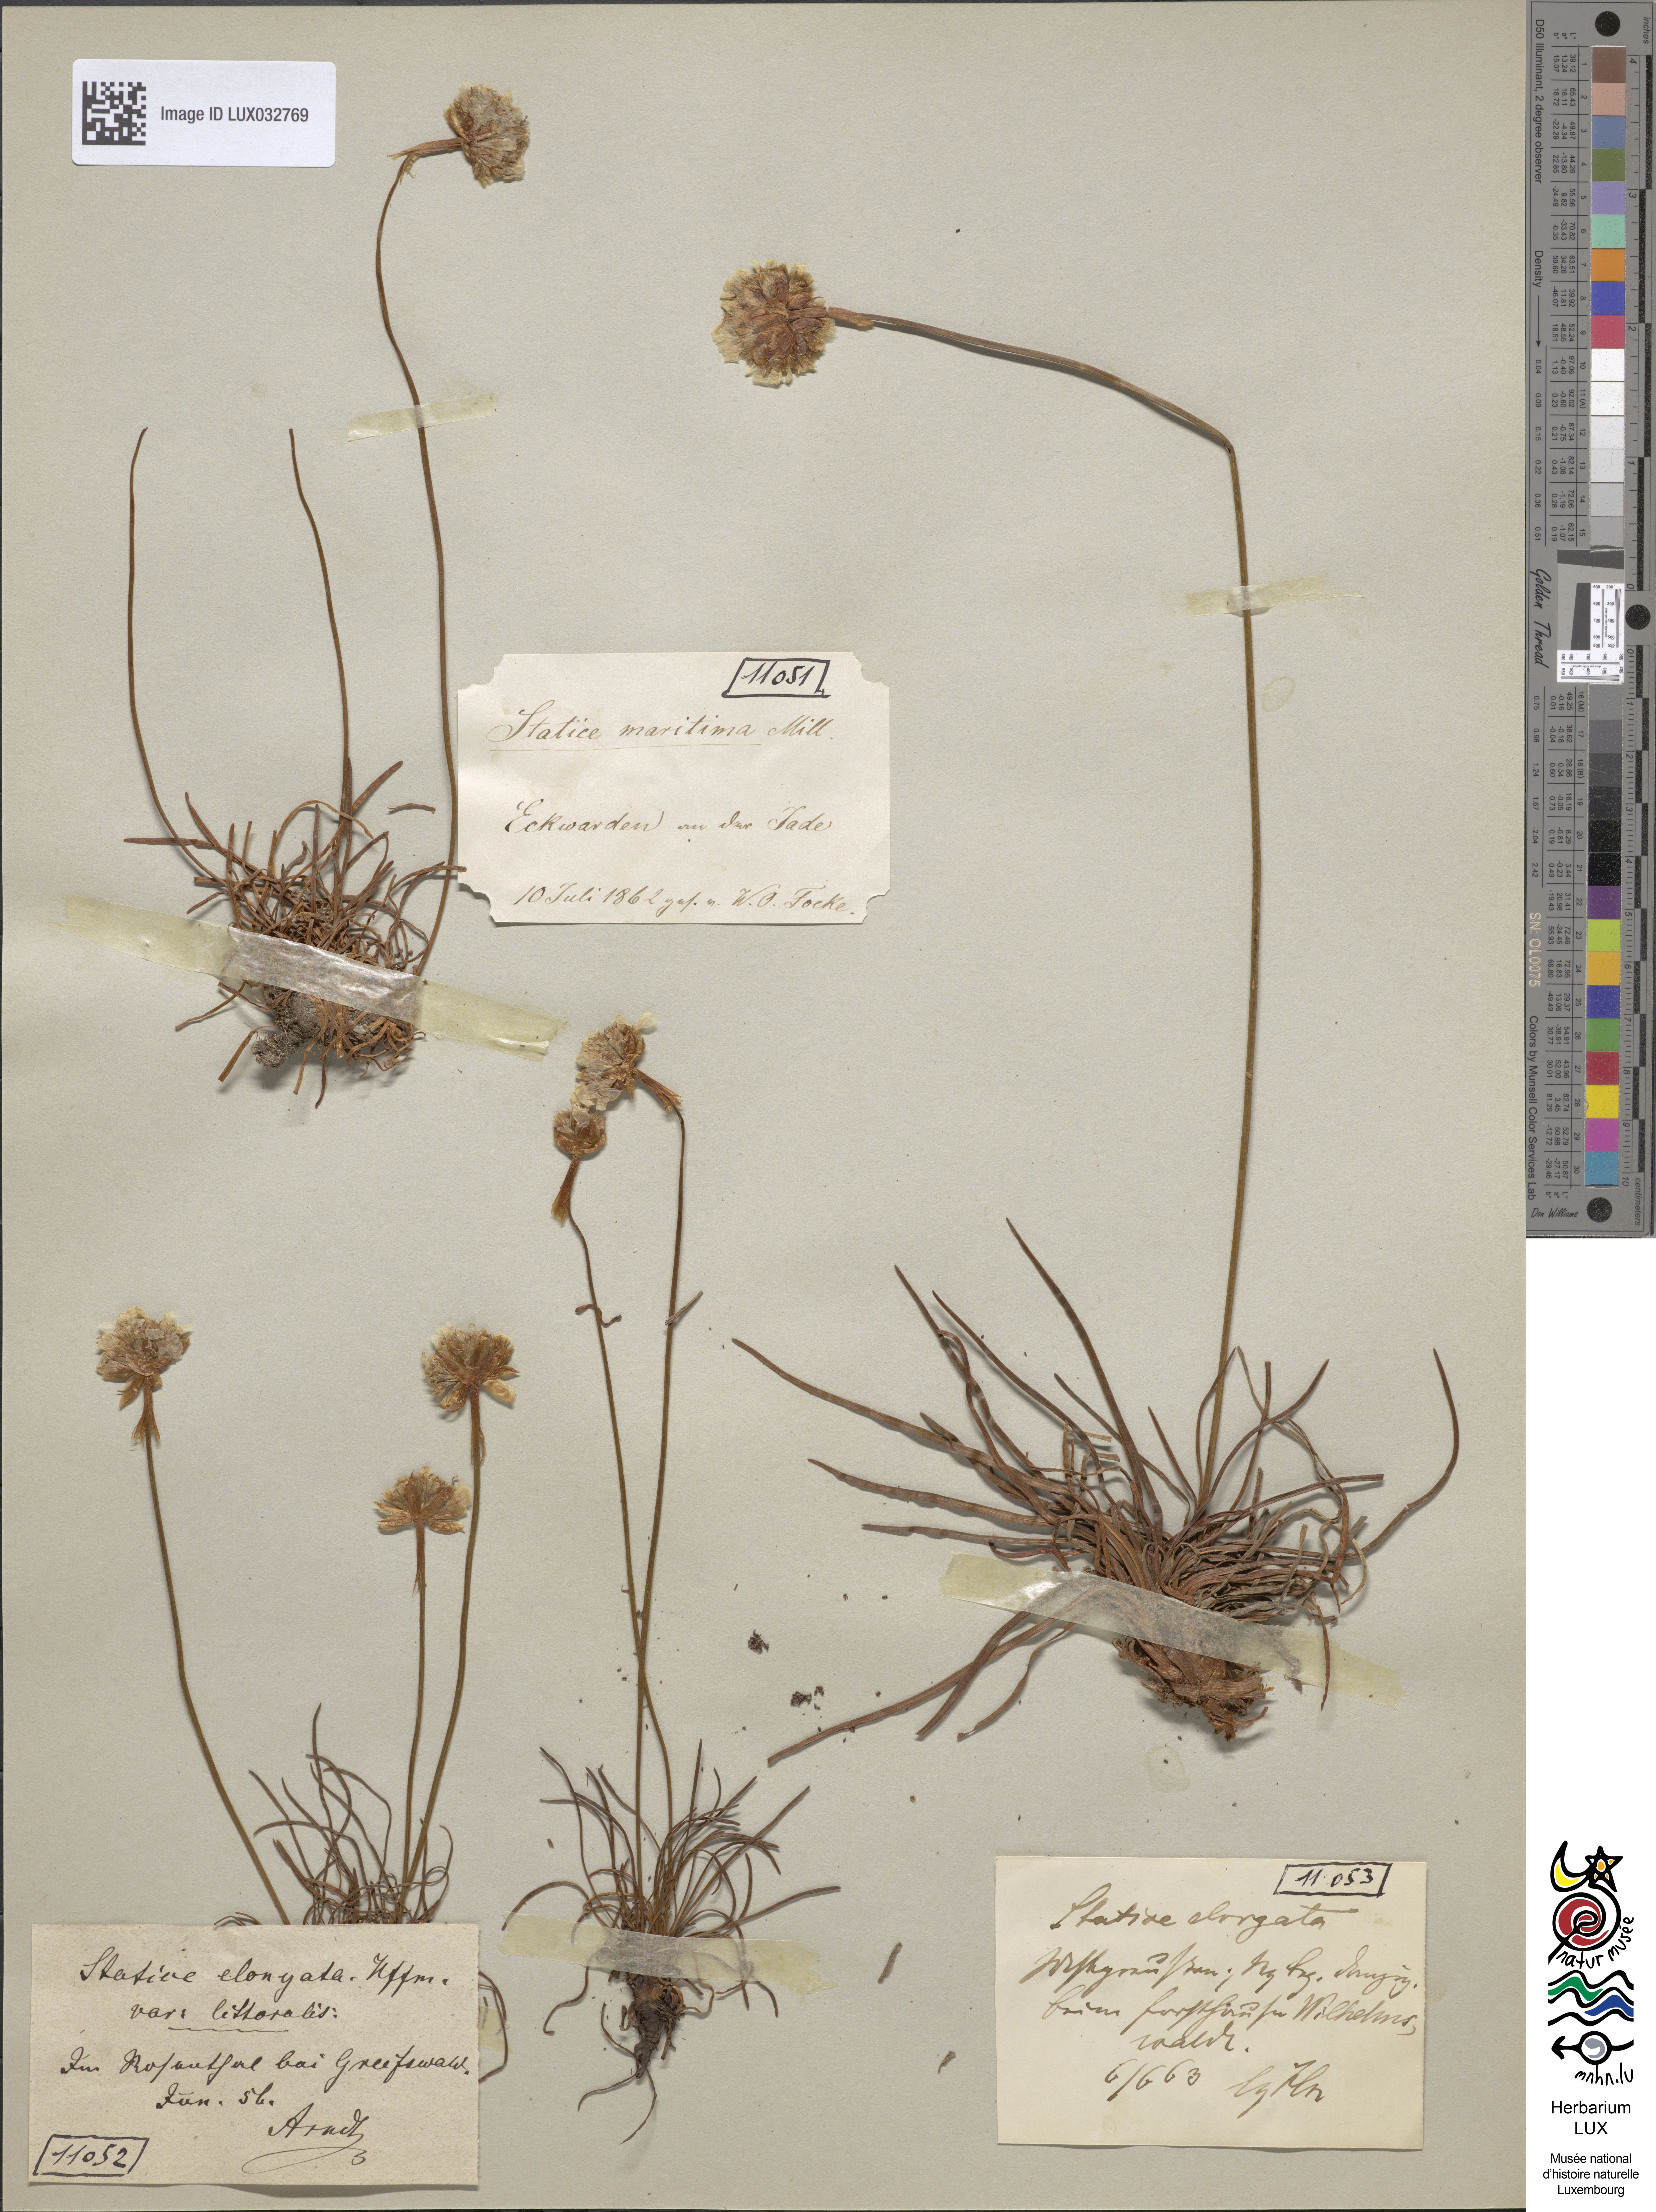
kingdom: Plantae
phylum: Tracheophyta
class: Magnoliopsida
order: Caryophyllales
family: Plumbaginaceae
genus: Armeria
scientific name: Armeria maritima
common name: Thrift
